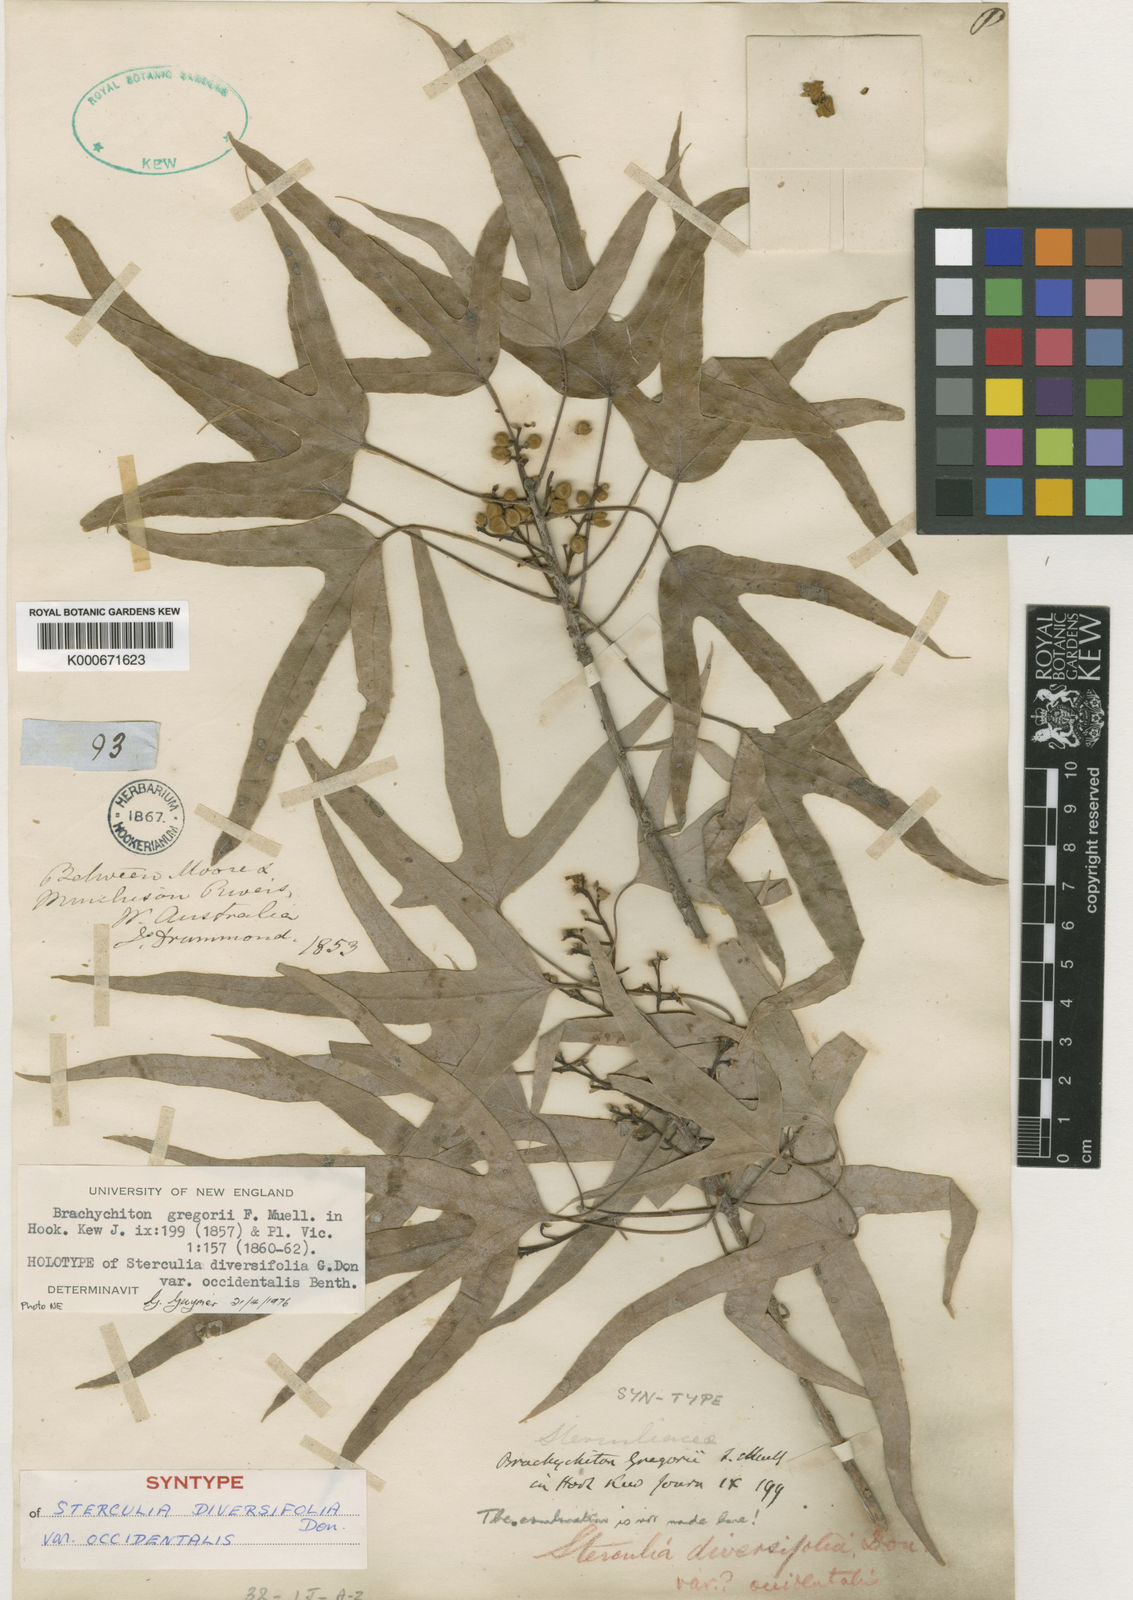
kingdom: Plantae
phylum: Tracheophyta
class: Magnoliopsida
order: Malvales
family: Malvaceae
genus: Brachychiton
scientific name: Brachychiton gregorii
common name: Desert kurrajong
